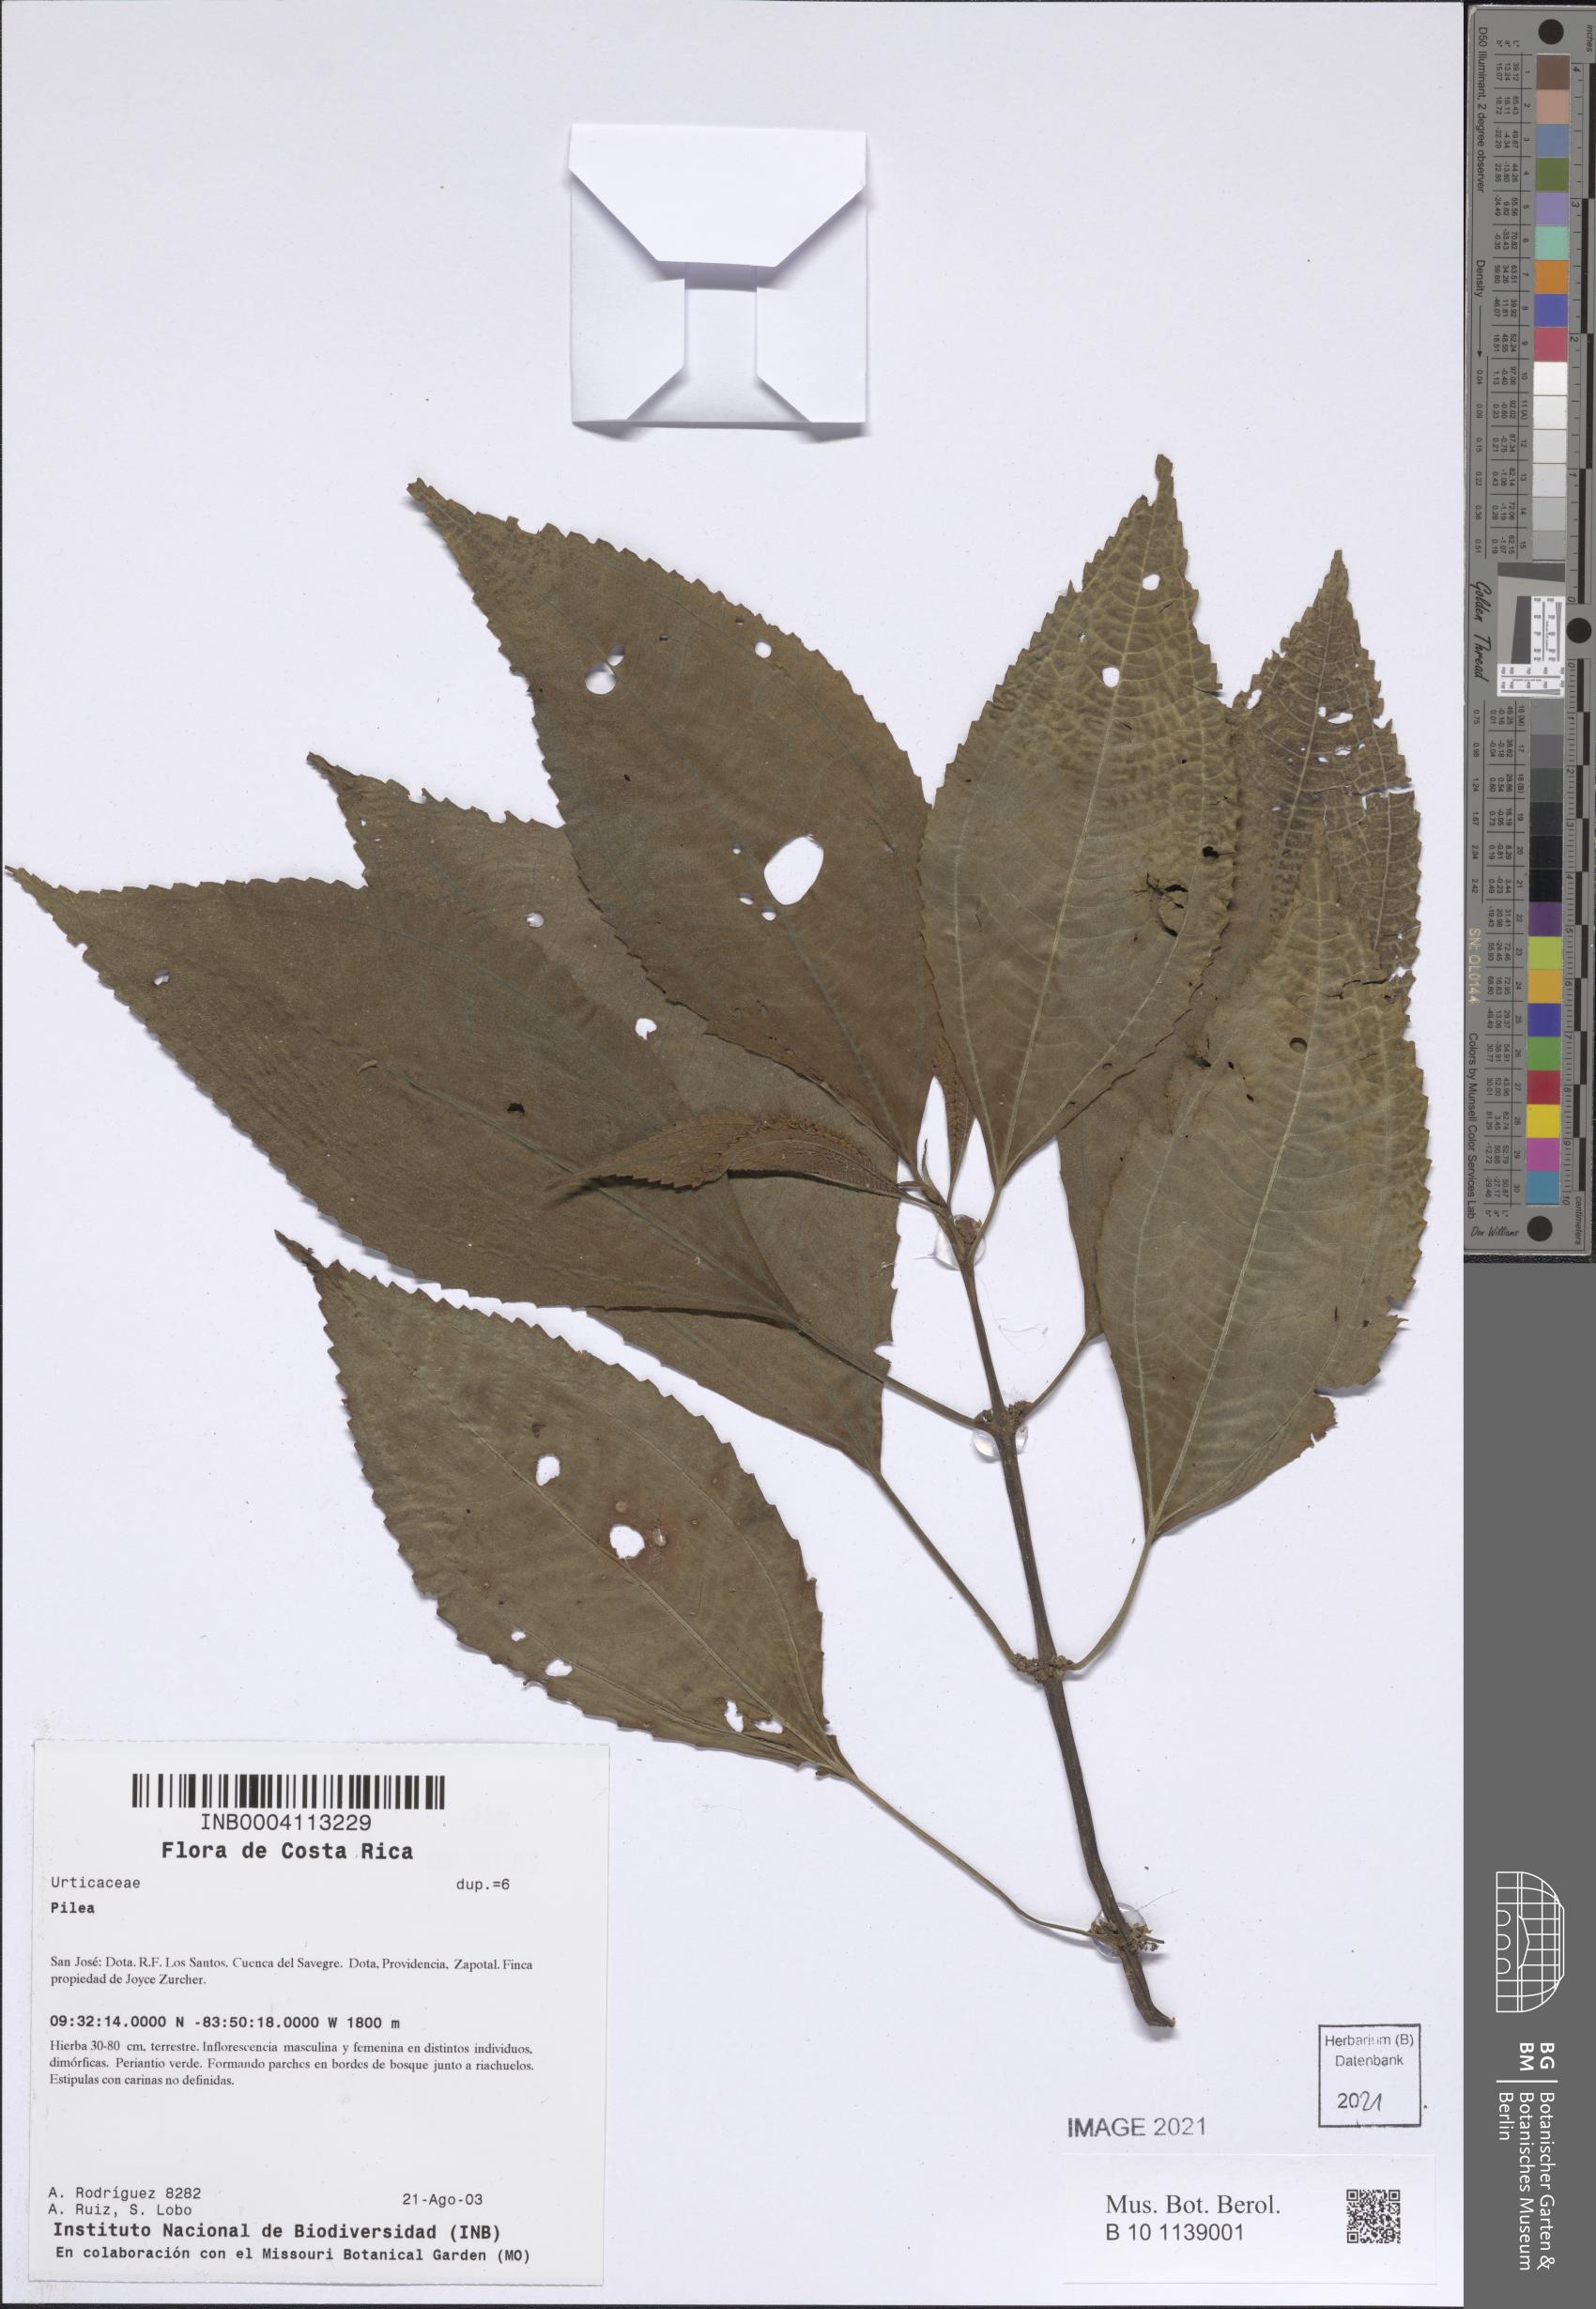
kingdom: Plantae
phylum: Tracheophyta
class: Magnoliopsida
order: Rosales
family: Urticaceae
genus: Pilea
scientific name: Pilea
